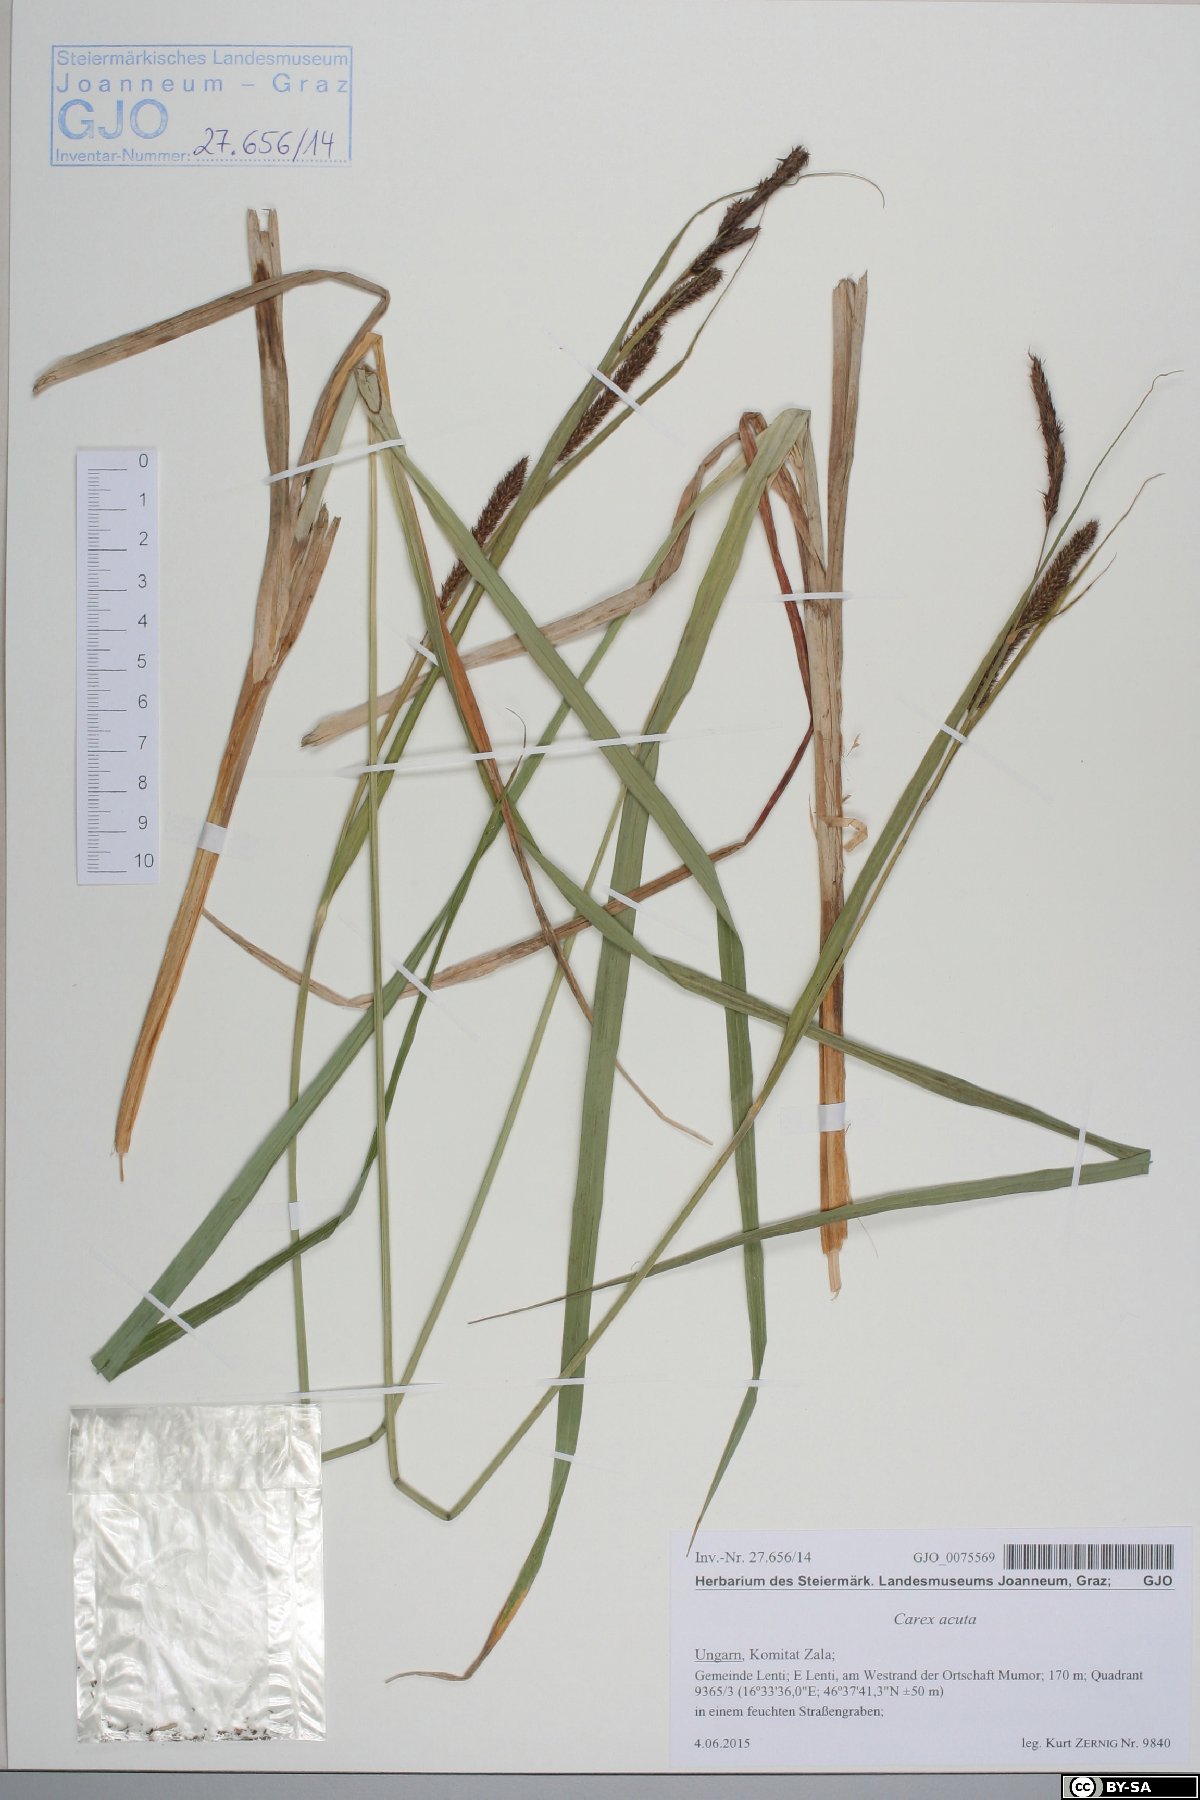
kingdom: Plantae
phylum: Tracheophyta
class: Liliopsida
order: Poales
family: Cyperaceae
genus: Carex
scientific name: Carex acuta
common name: Slender tufted-sedge
